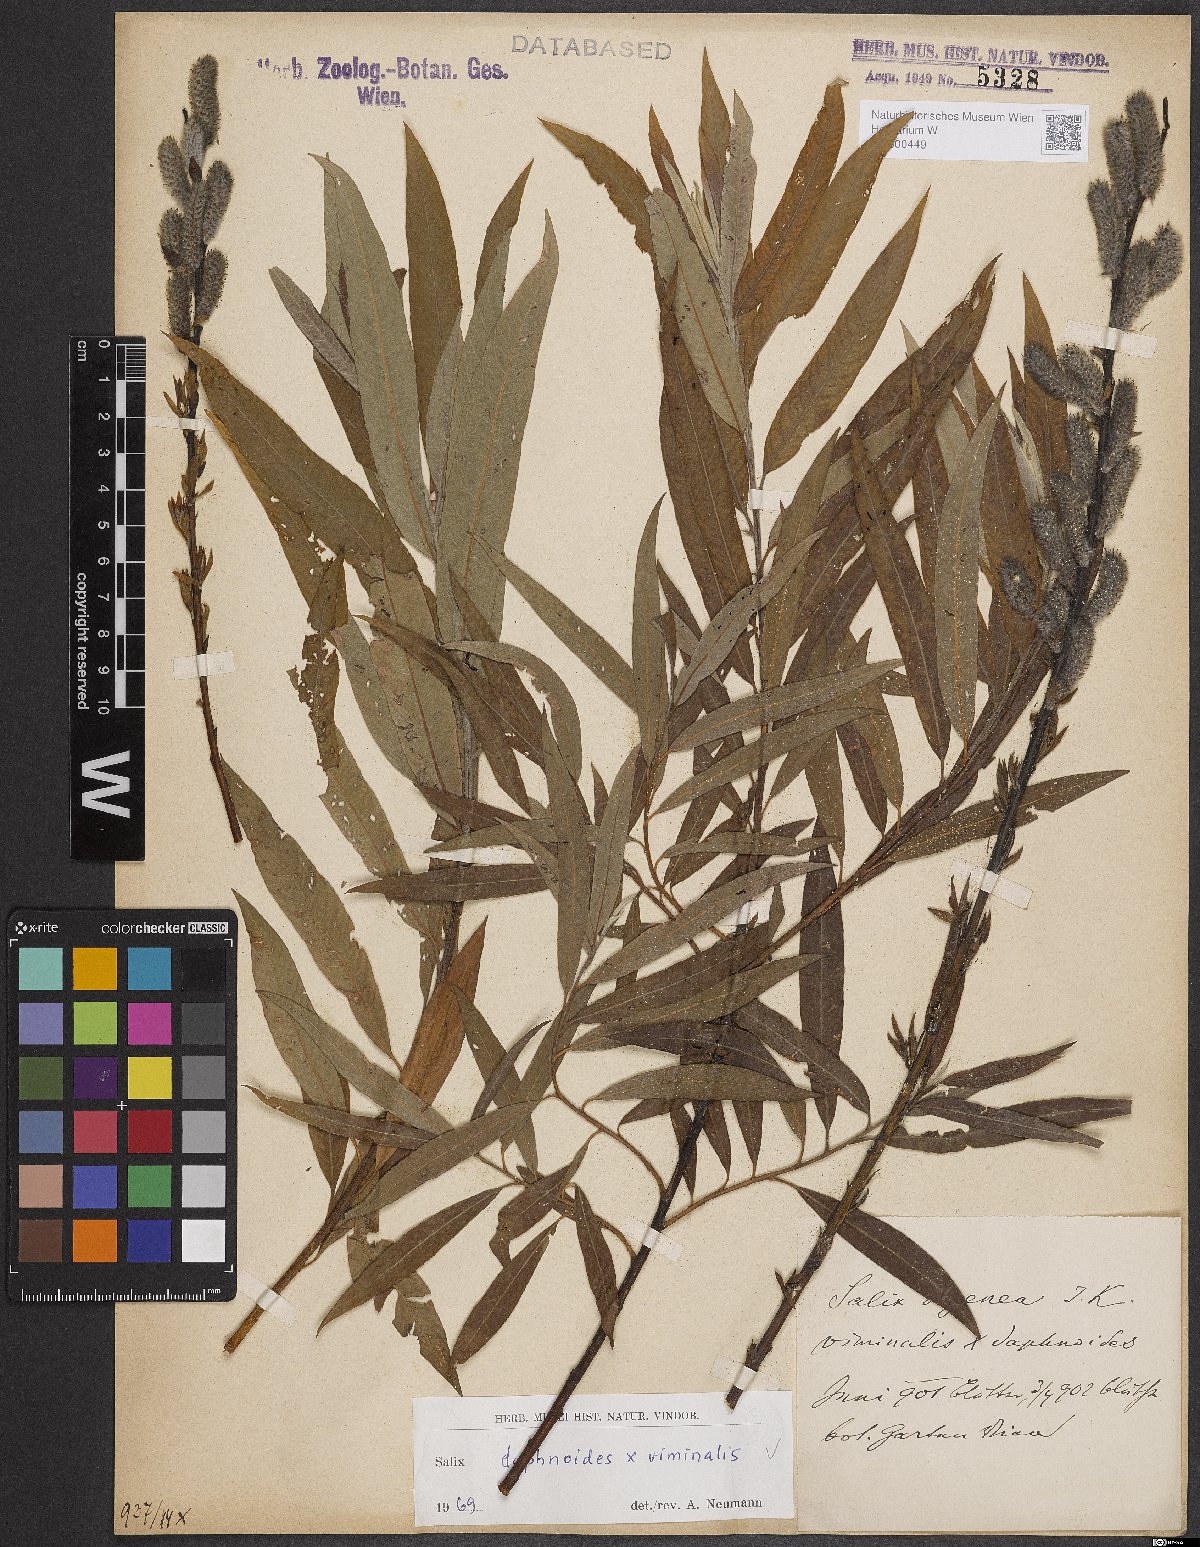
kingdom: Plantae
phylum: Tracheophyta
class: Magnoliopsida
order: Malpighiales
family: Salicaceae
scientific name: Salicaceae
